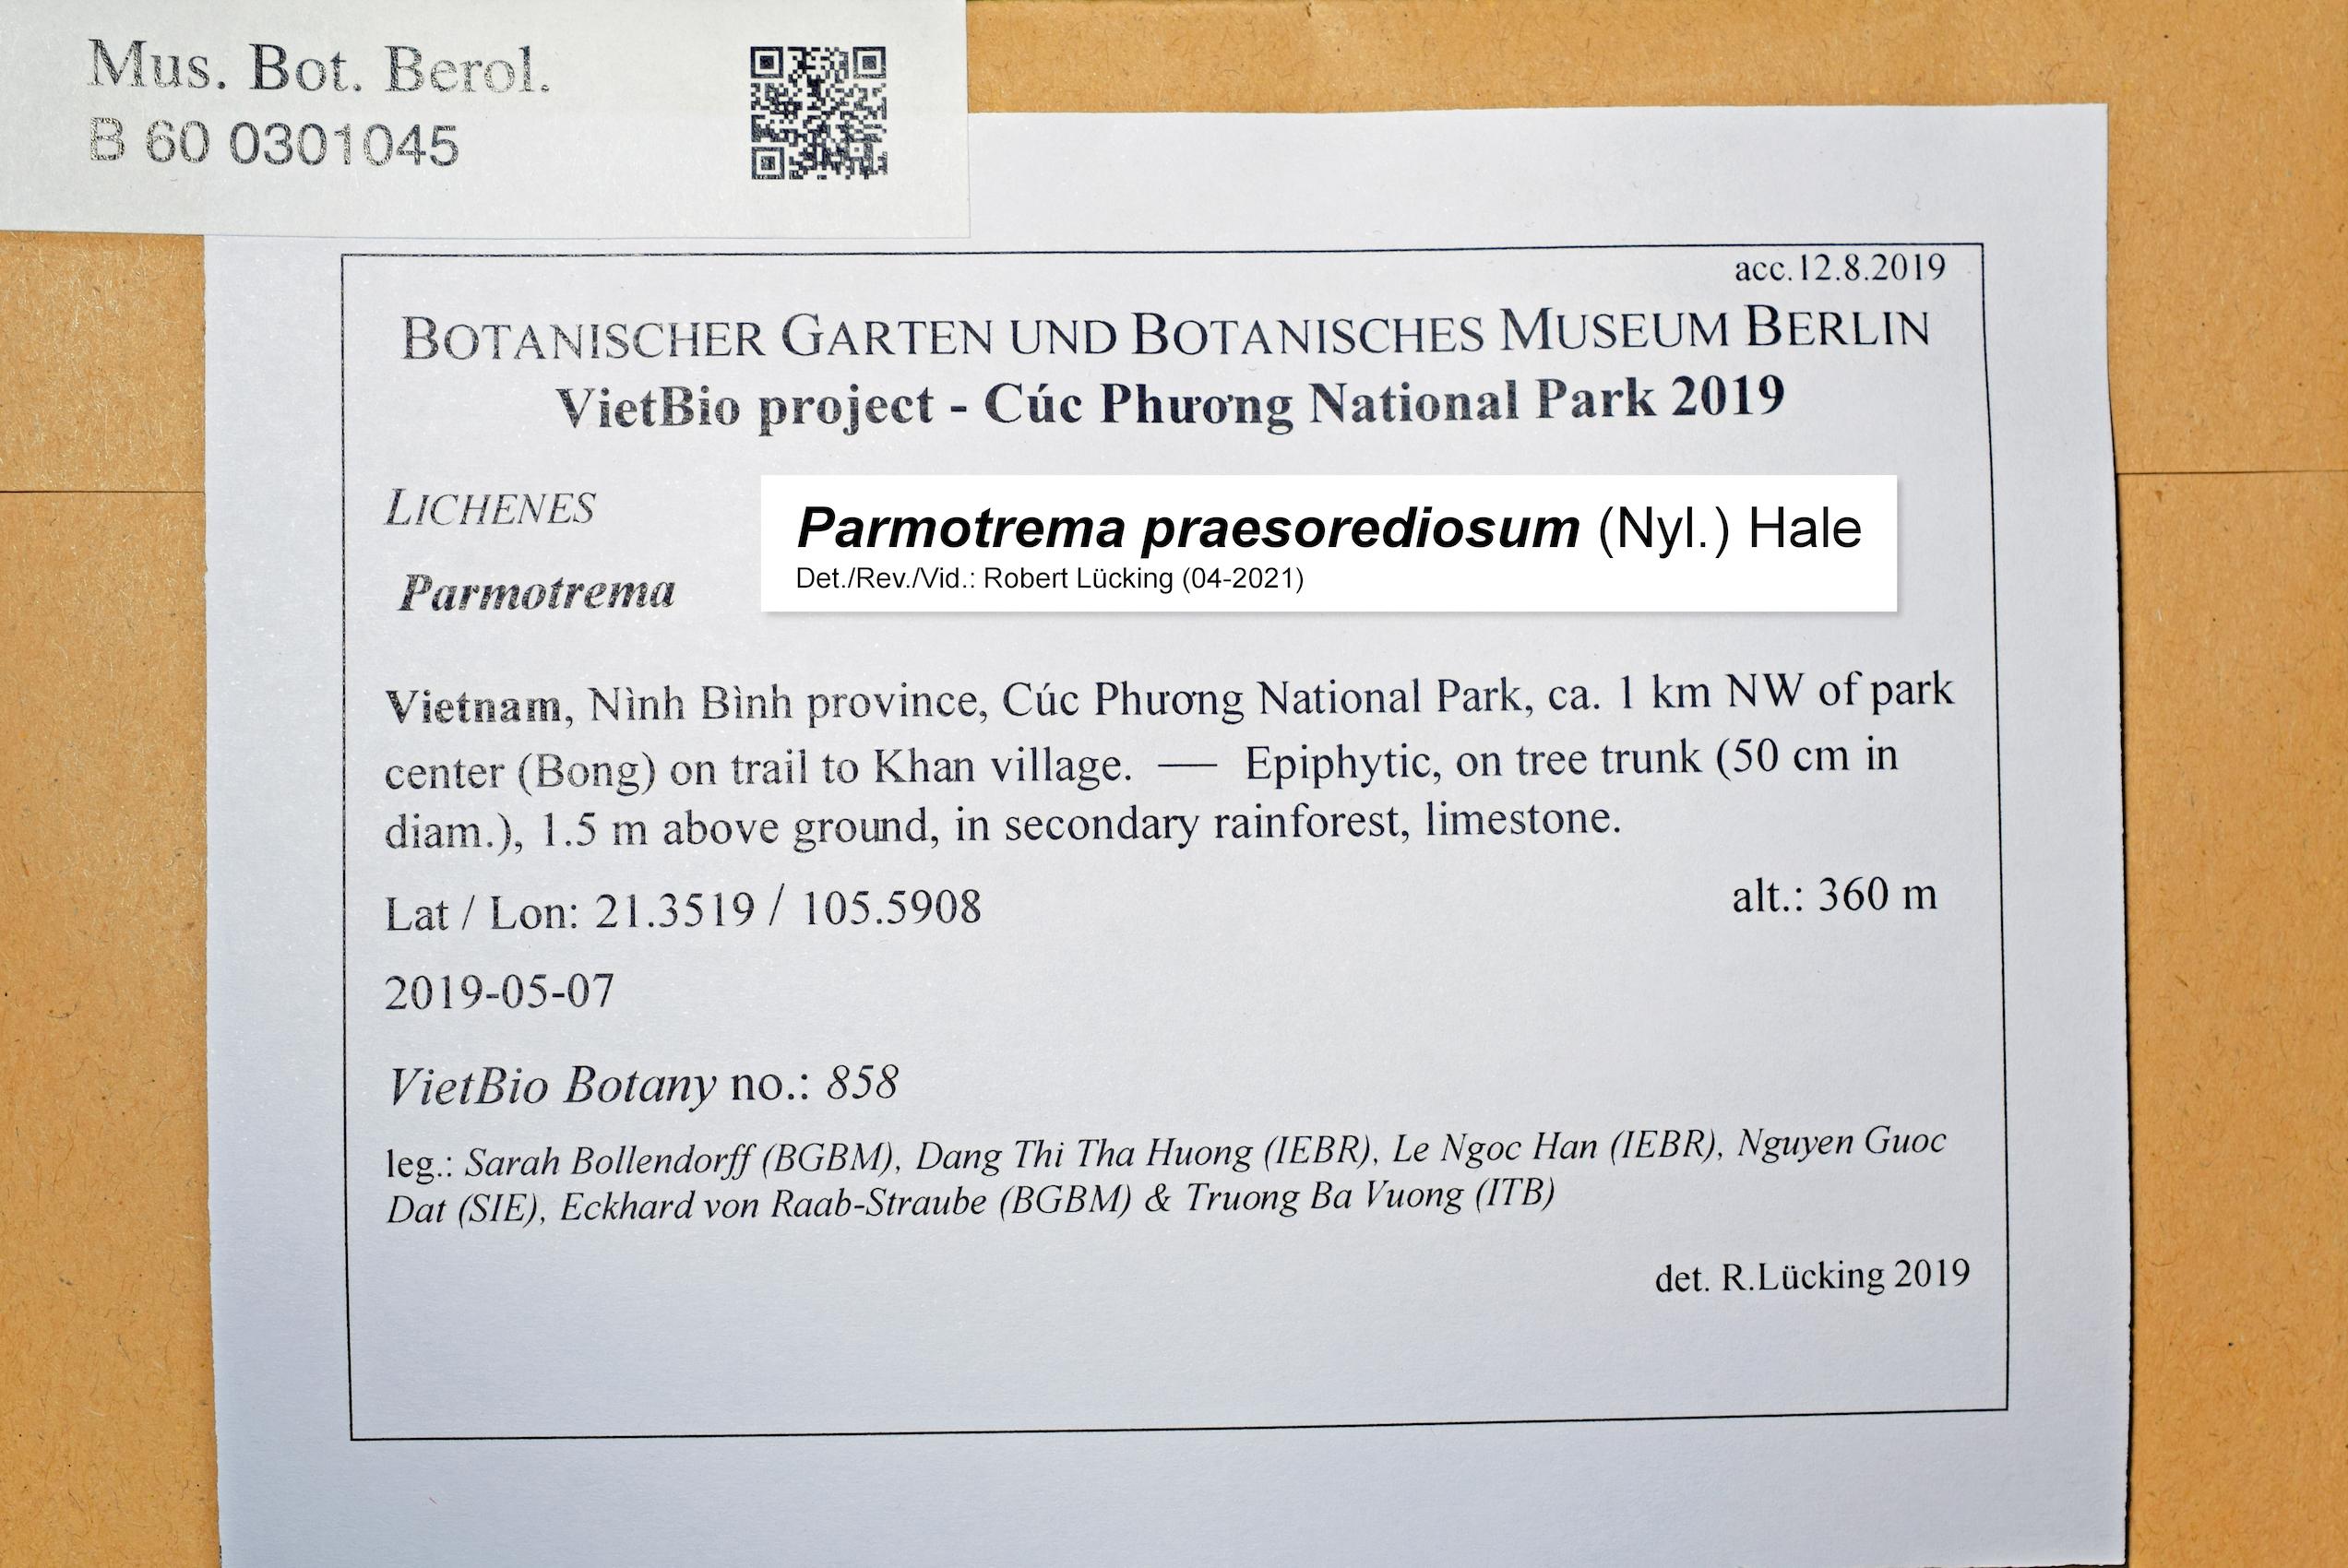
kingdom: Fungi
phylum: Ascomycota
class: Lecanoromycetes
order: Lecanorales
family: Parmeliaceae
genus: Parmotrema
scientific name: Parmotrema
